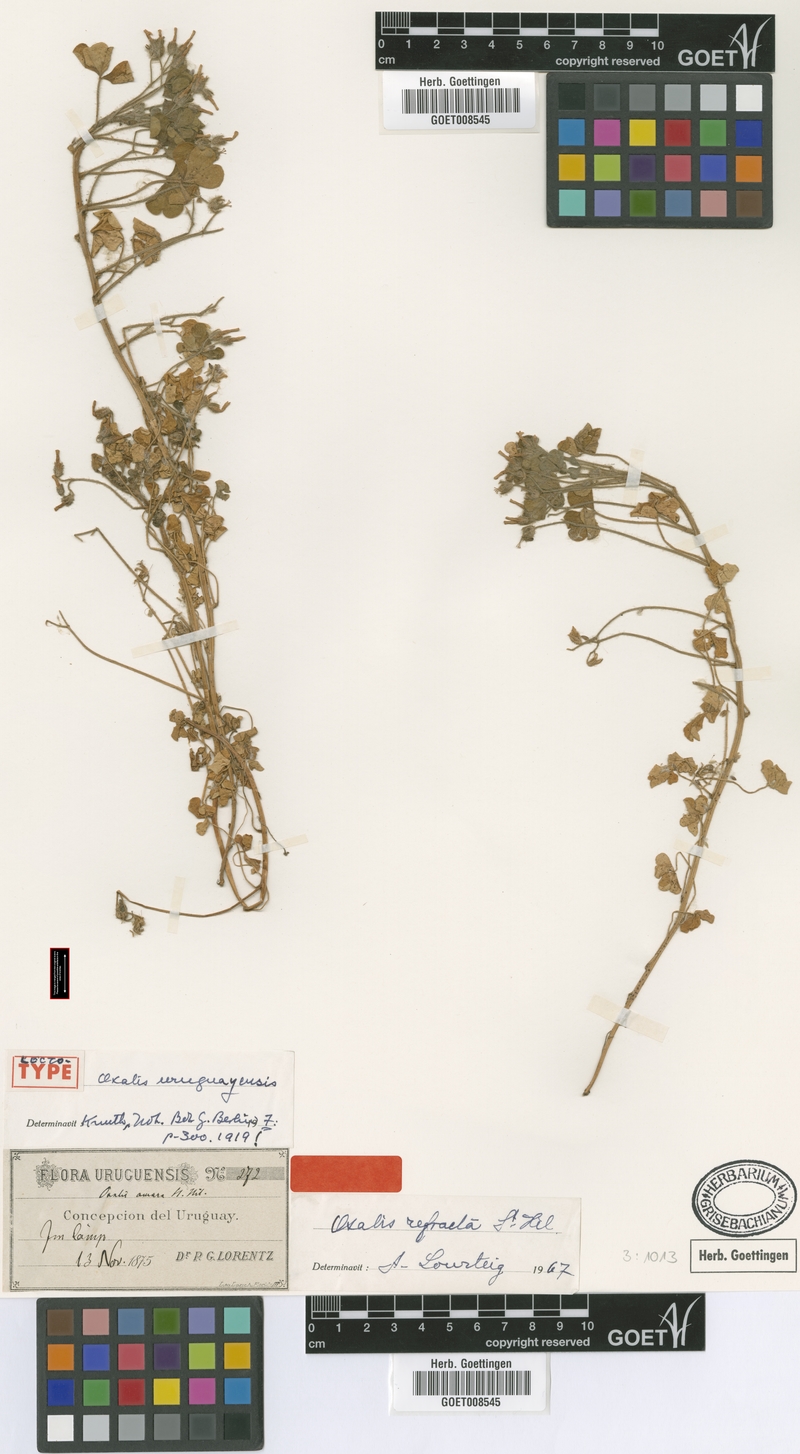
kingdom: Plantae
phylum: Tracheophyta
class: Magnoliopsida
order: Oxalidales
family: Oxalidaceae
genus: Oxalis
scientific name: Oxalis refracta
